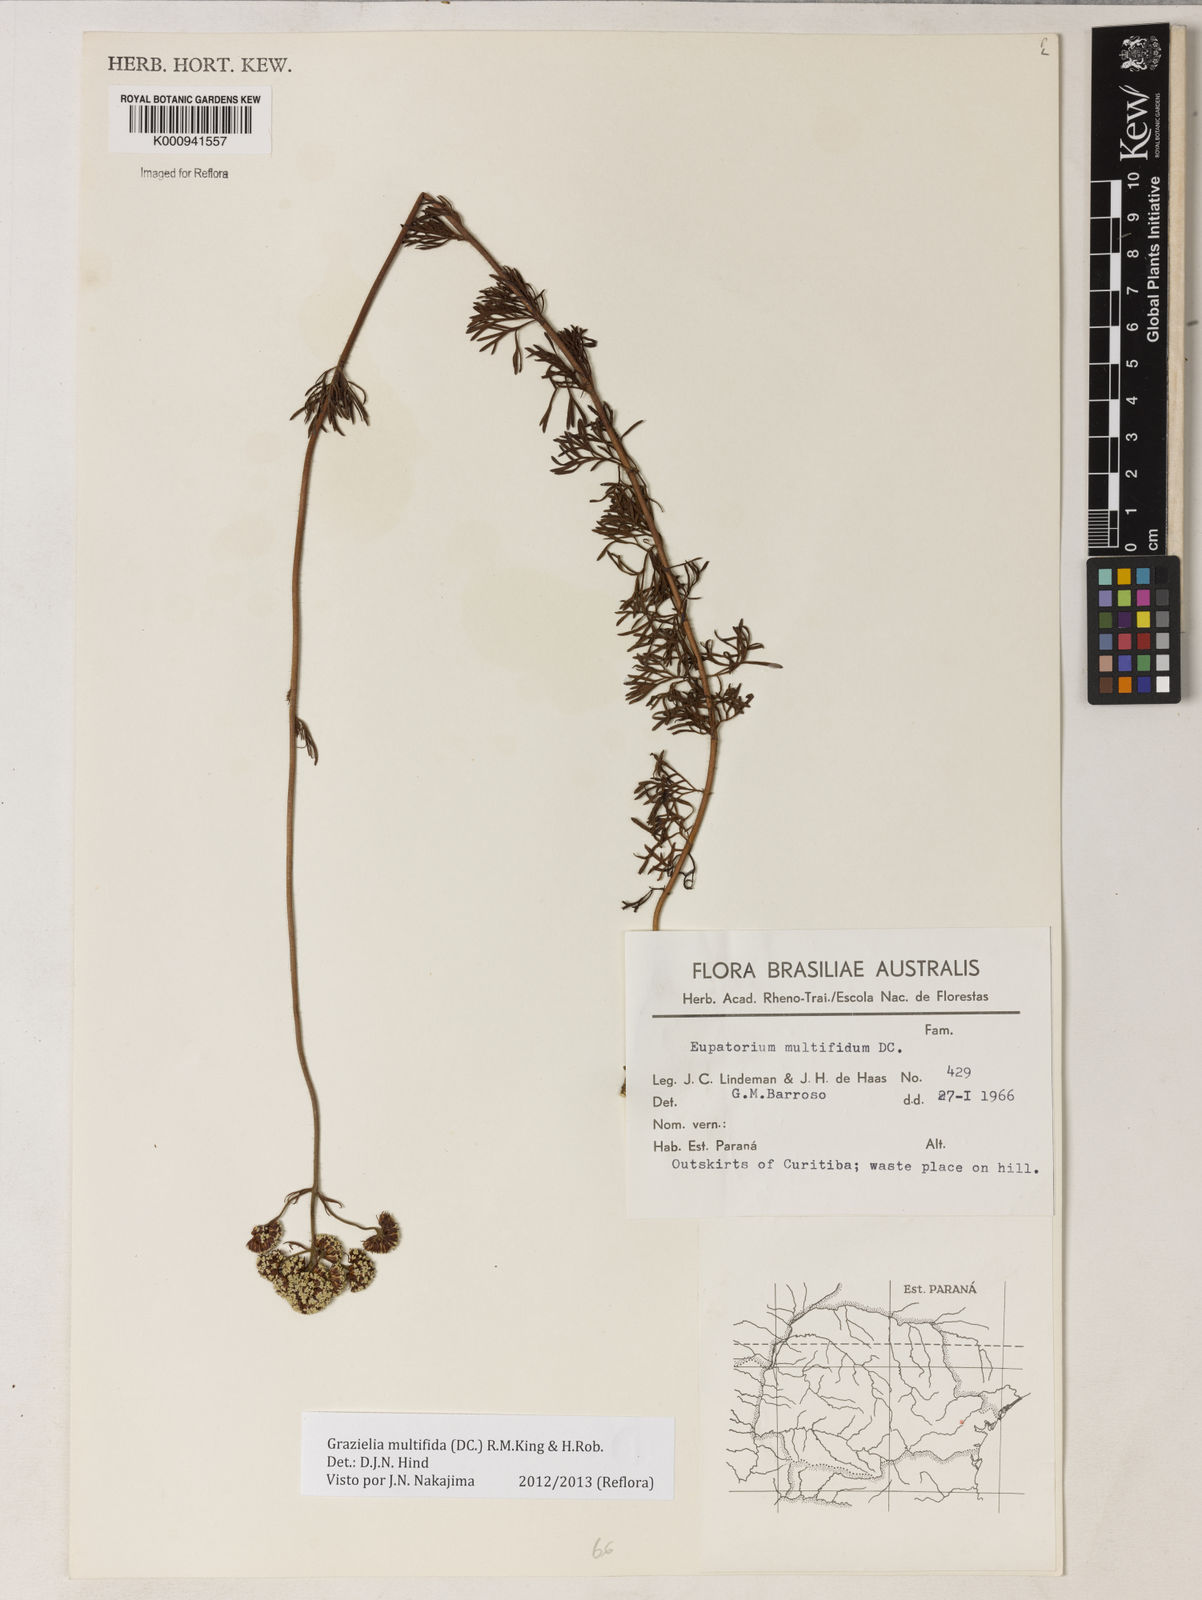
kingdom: Plantae
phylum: Tracheophyta
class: Magnoliopsida
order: Asterales
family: Asteraceae
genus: Grazielia
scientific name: Grazielia multifida
